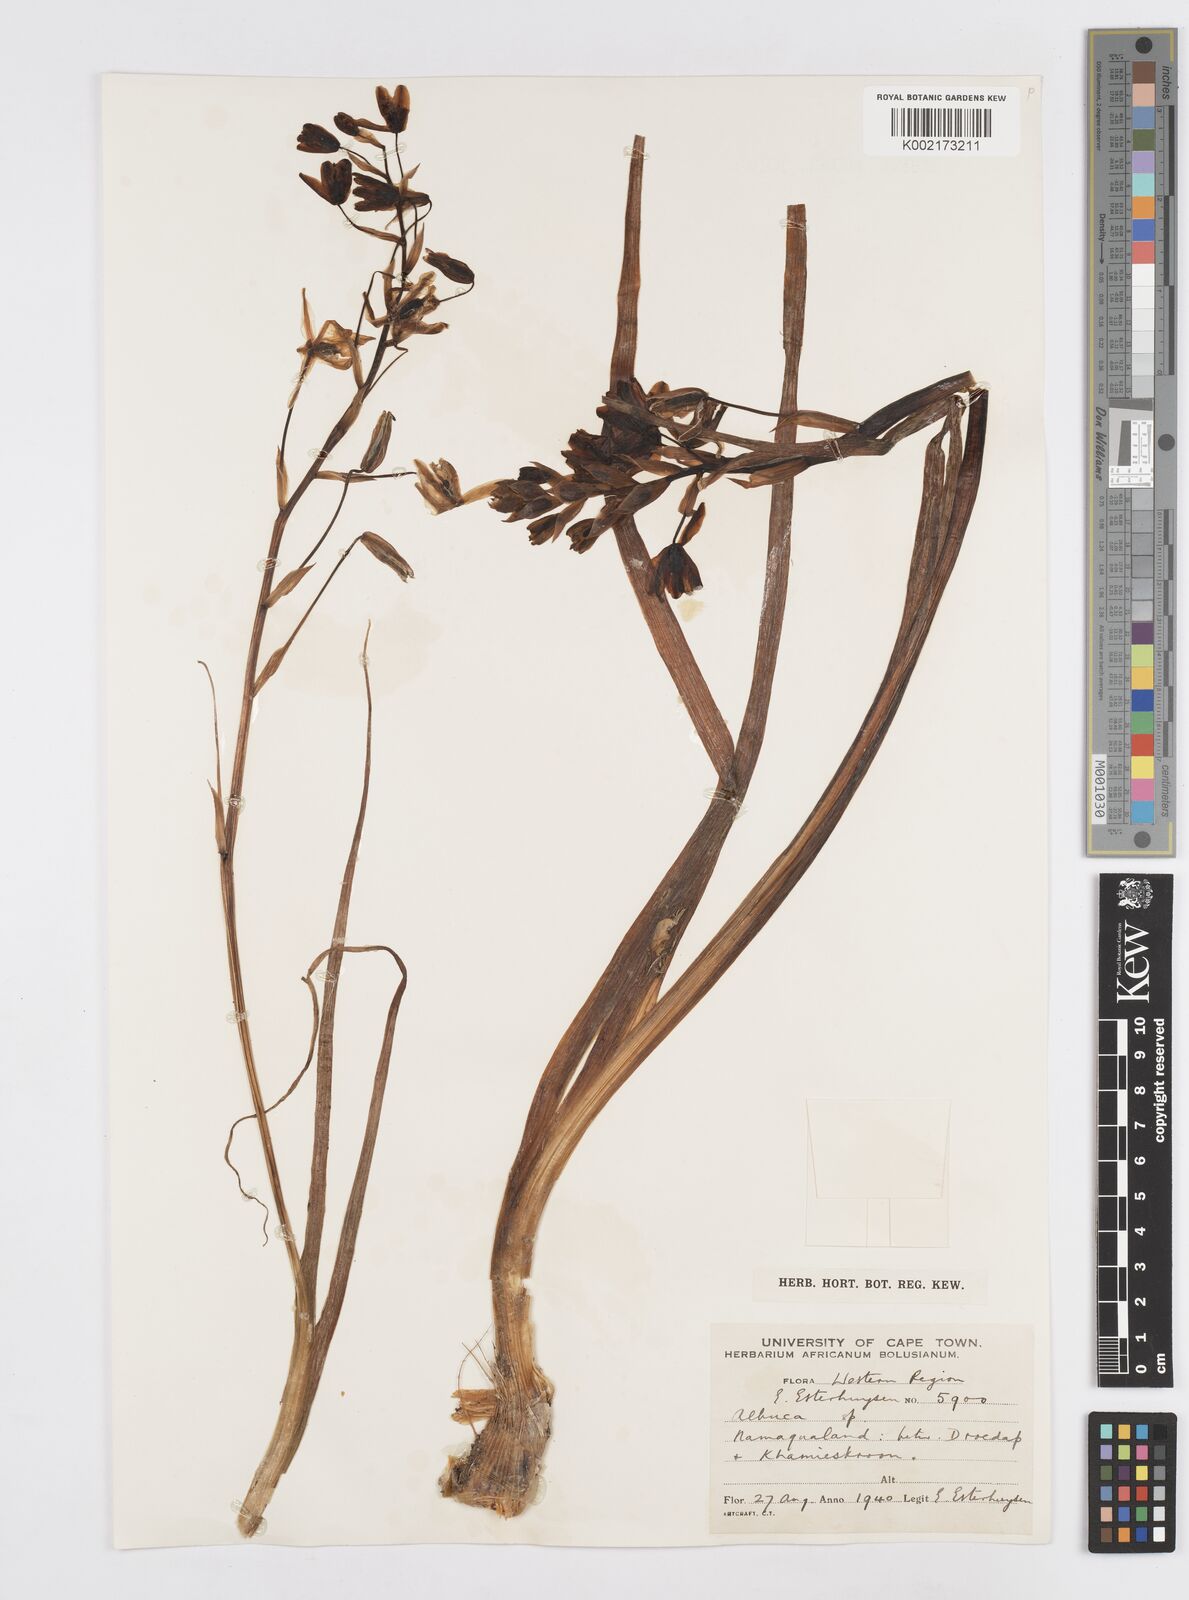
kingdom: Plantae
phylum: Tracheophyta
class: Liliopsida
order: Asparagales
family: Asparagaceae
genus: Albuca
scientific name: Albuca
